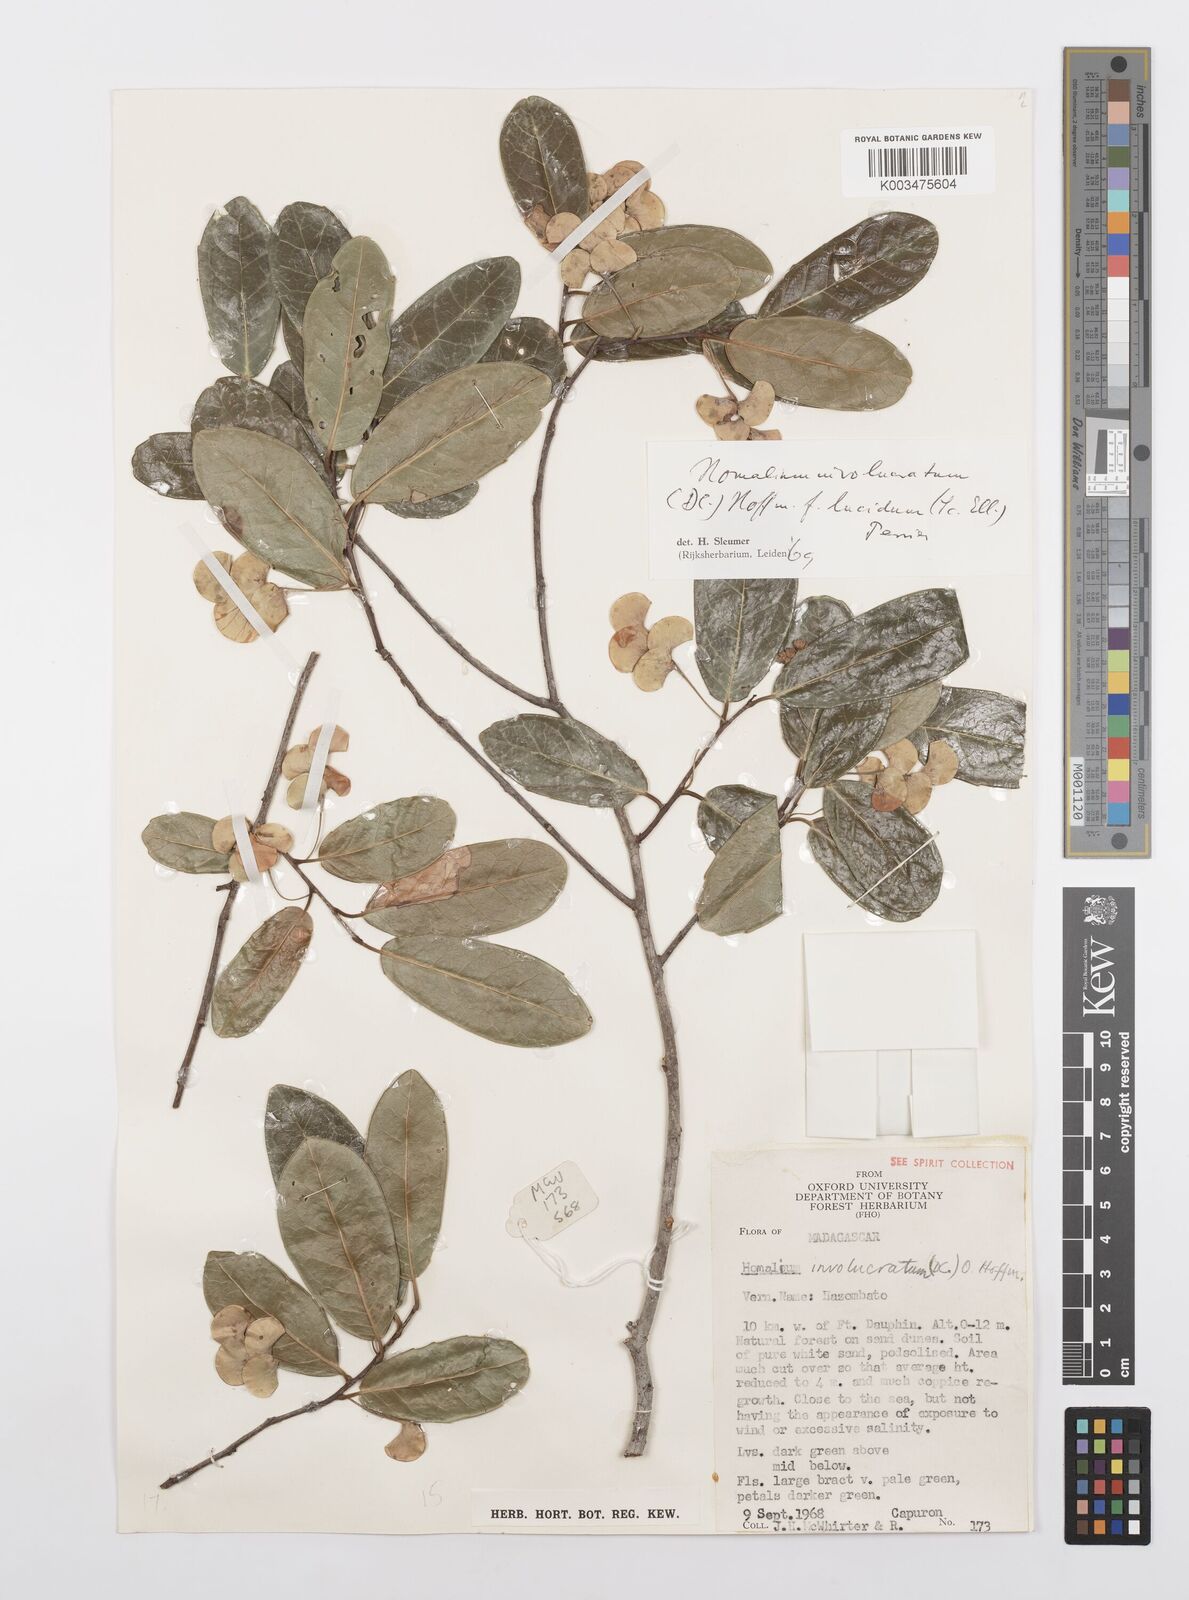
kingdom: Plantae
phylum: Tracheophyta
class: Magnoliopsida
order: Malpighiales
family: Salicaceae
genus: Homalium
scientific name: Homalium involucratum
